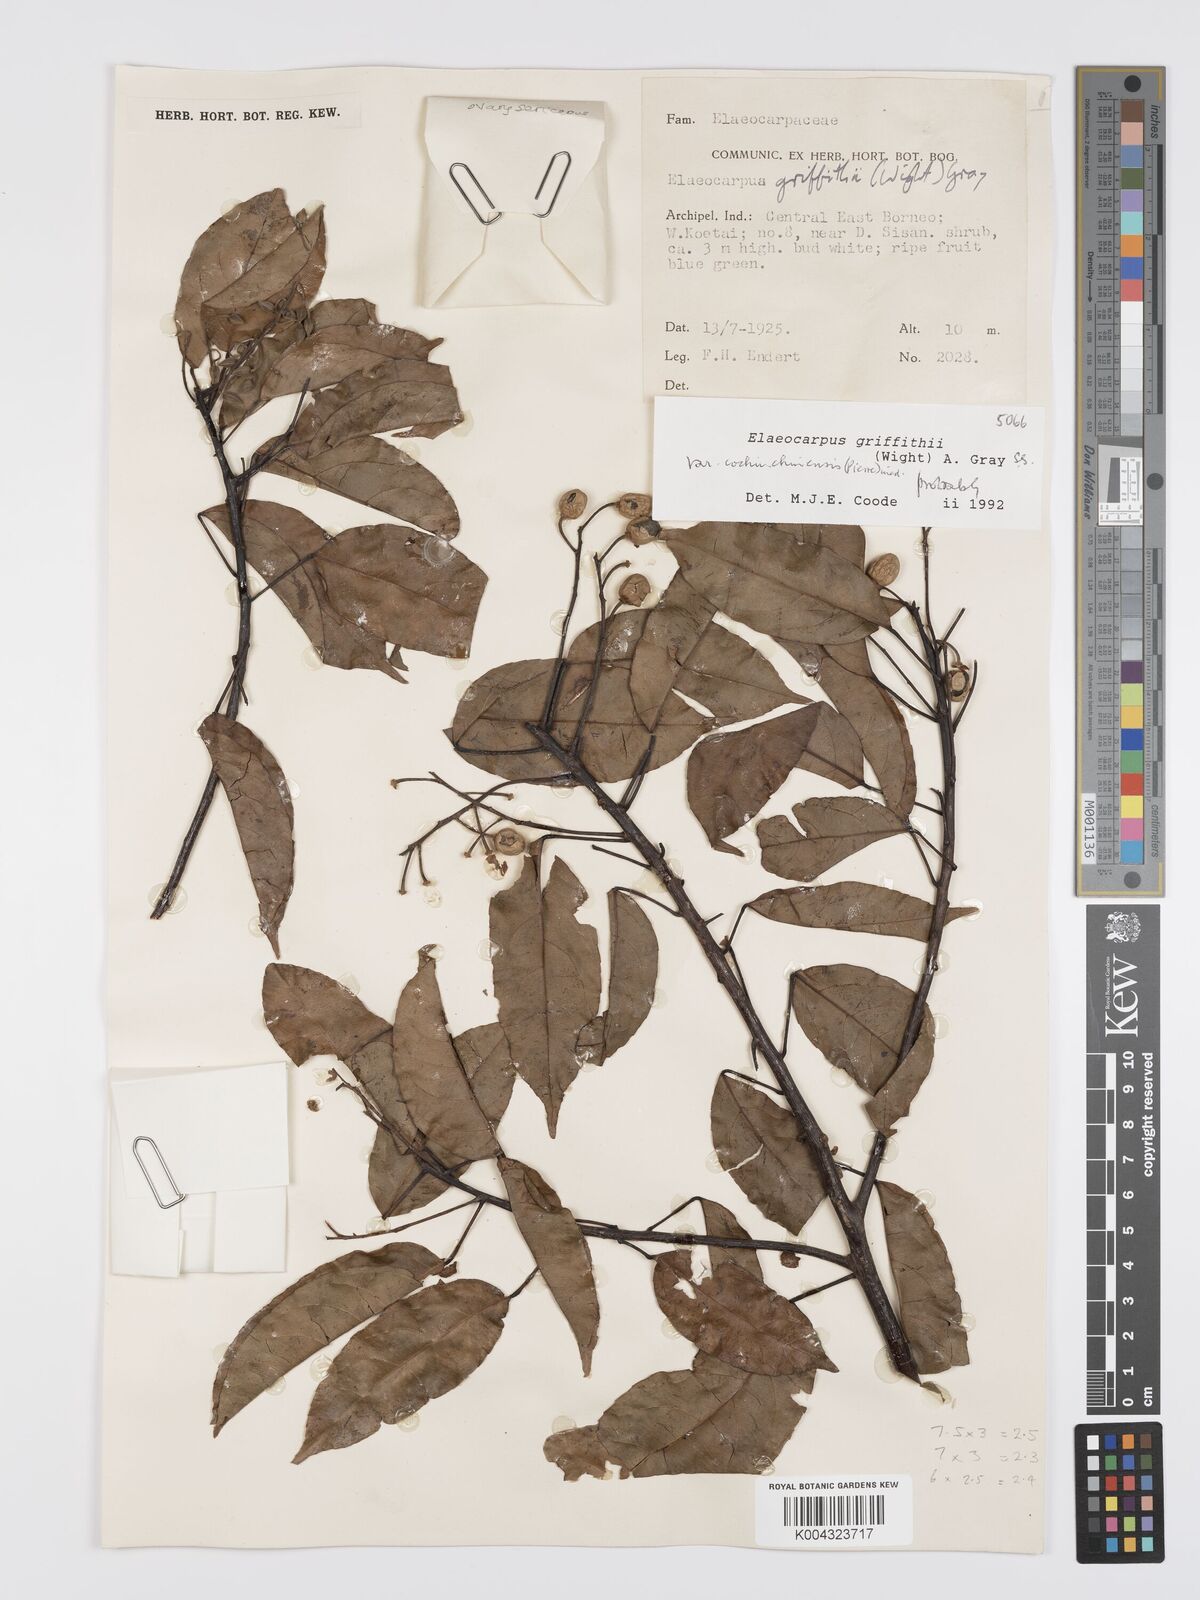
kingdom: Plantae
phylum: Tracheophyta
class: Magnoliopsida
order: Oxalidales
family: Elaeocarpaceae
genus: Elaeocarpus
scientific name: Elaeocarpus griffithii
